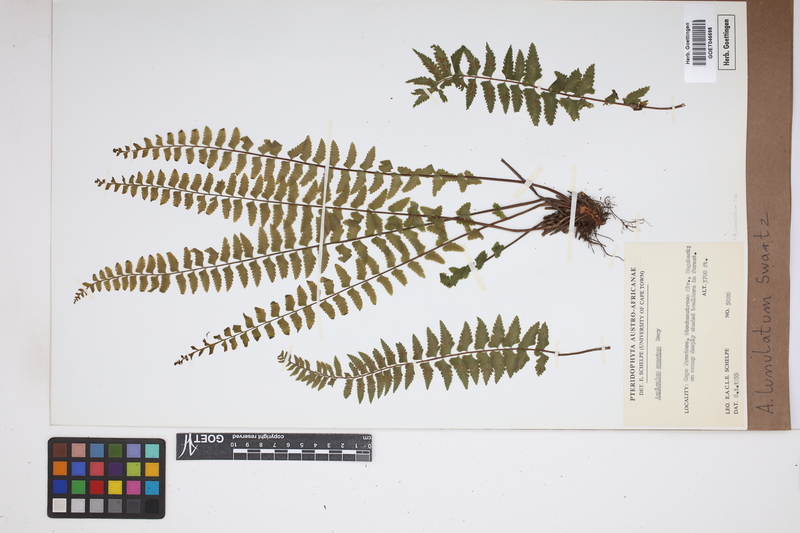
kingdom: Plantae
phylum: Tracheophyta
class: Polypodiopsida
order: Polypodiales
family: Aspleniaceae
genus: Asplenium
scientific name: Asplenium lunulatum
